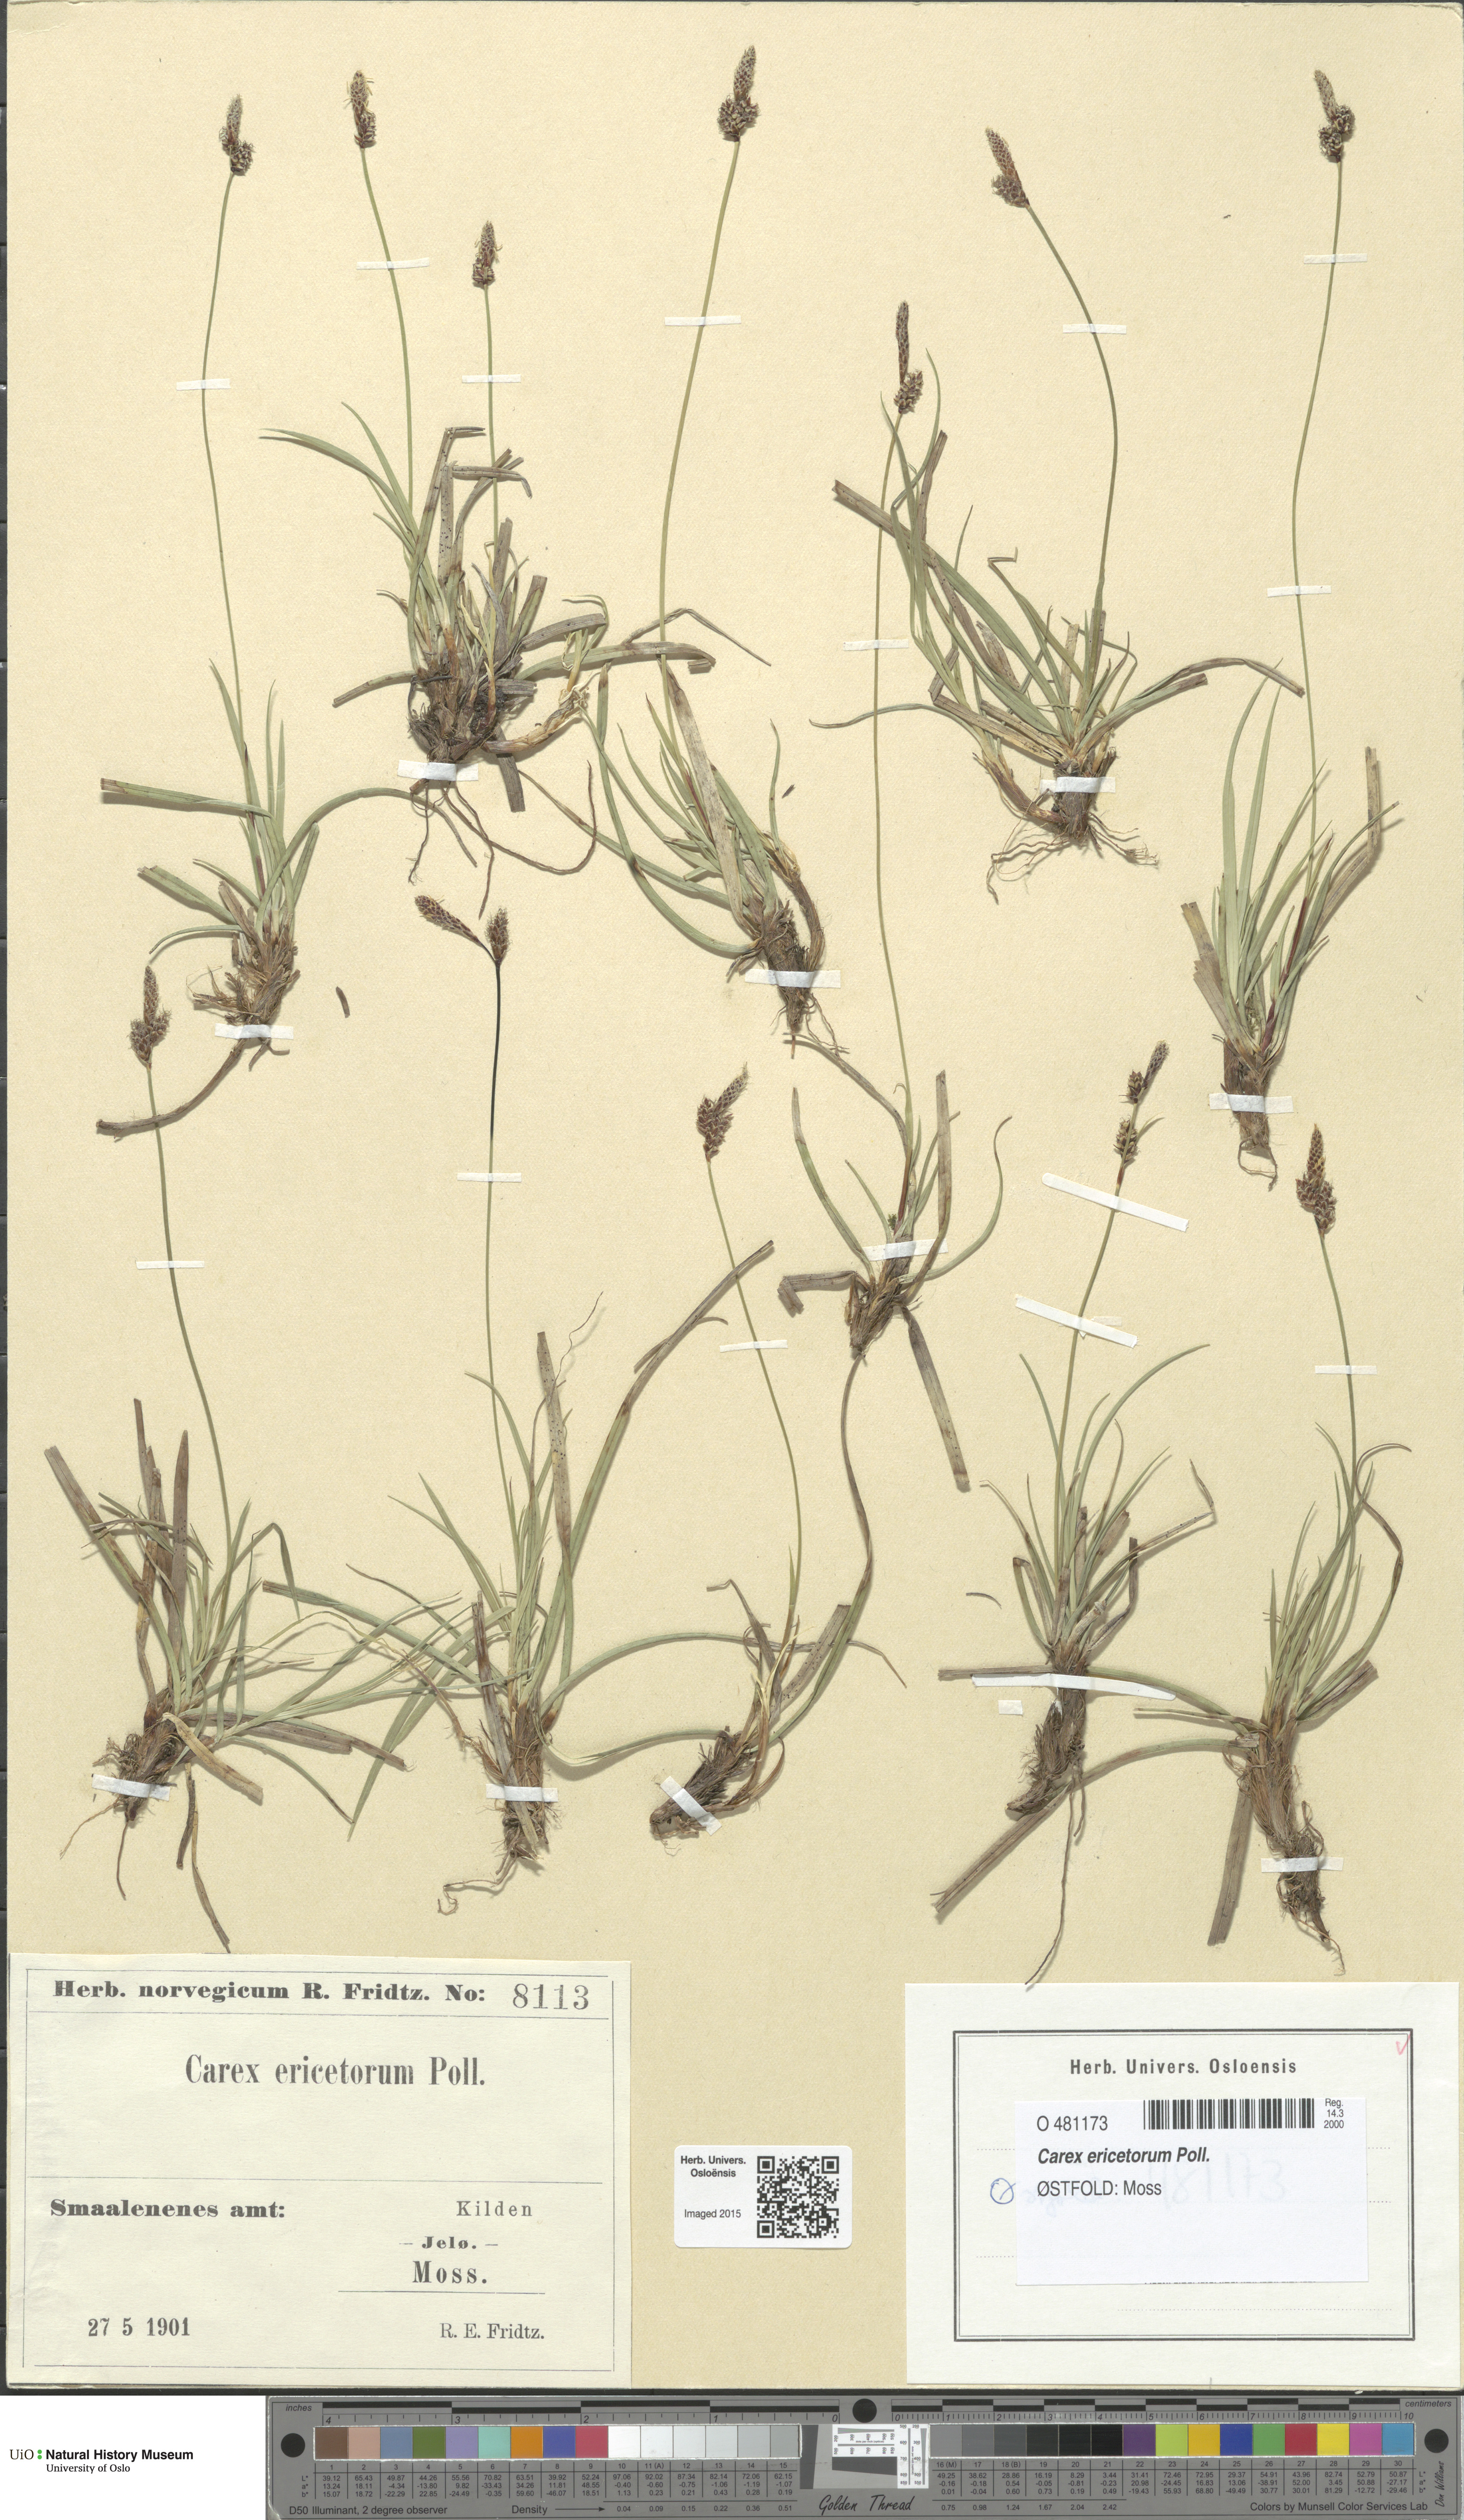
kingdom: Plantae
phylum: Tracheophyta
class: Liliopsida
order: Poales
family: Cyperaceae
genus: Carex
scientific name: Carex ericetorum
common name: Rare spring-sedge
